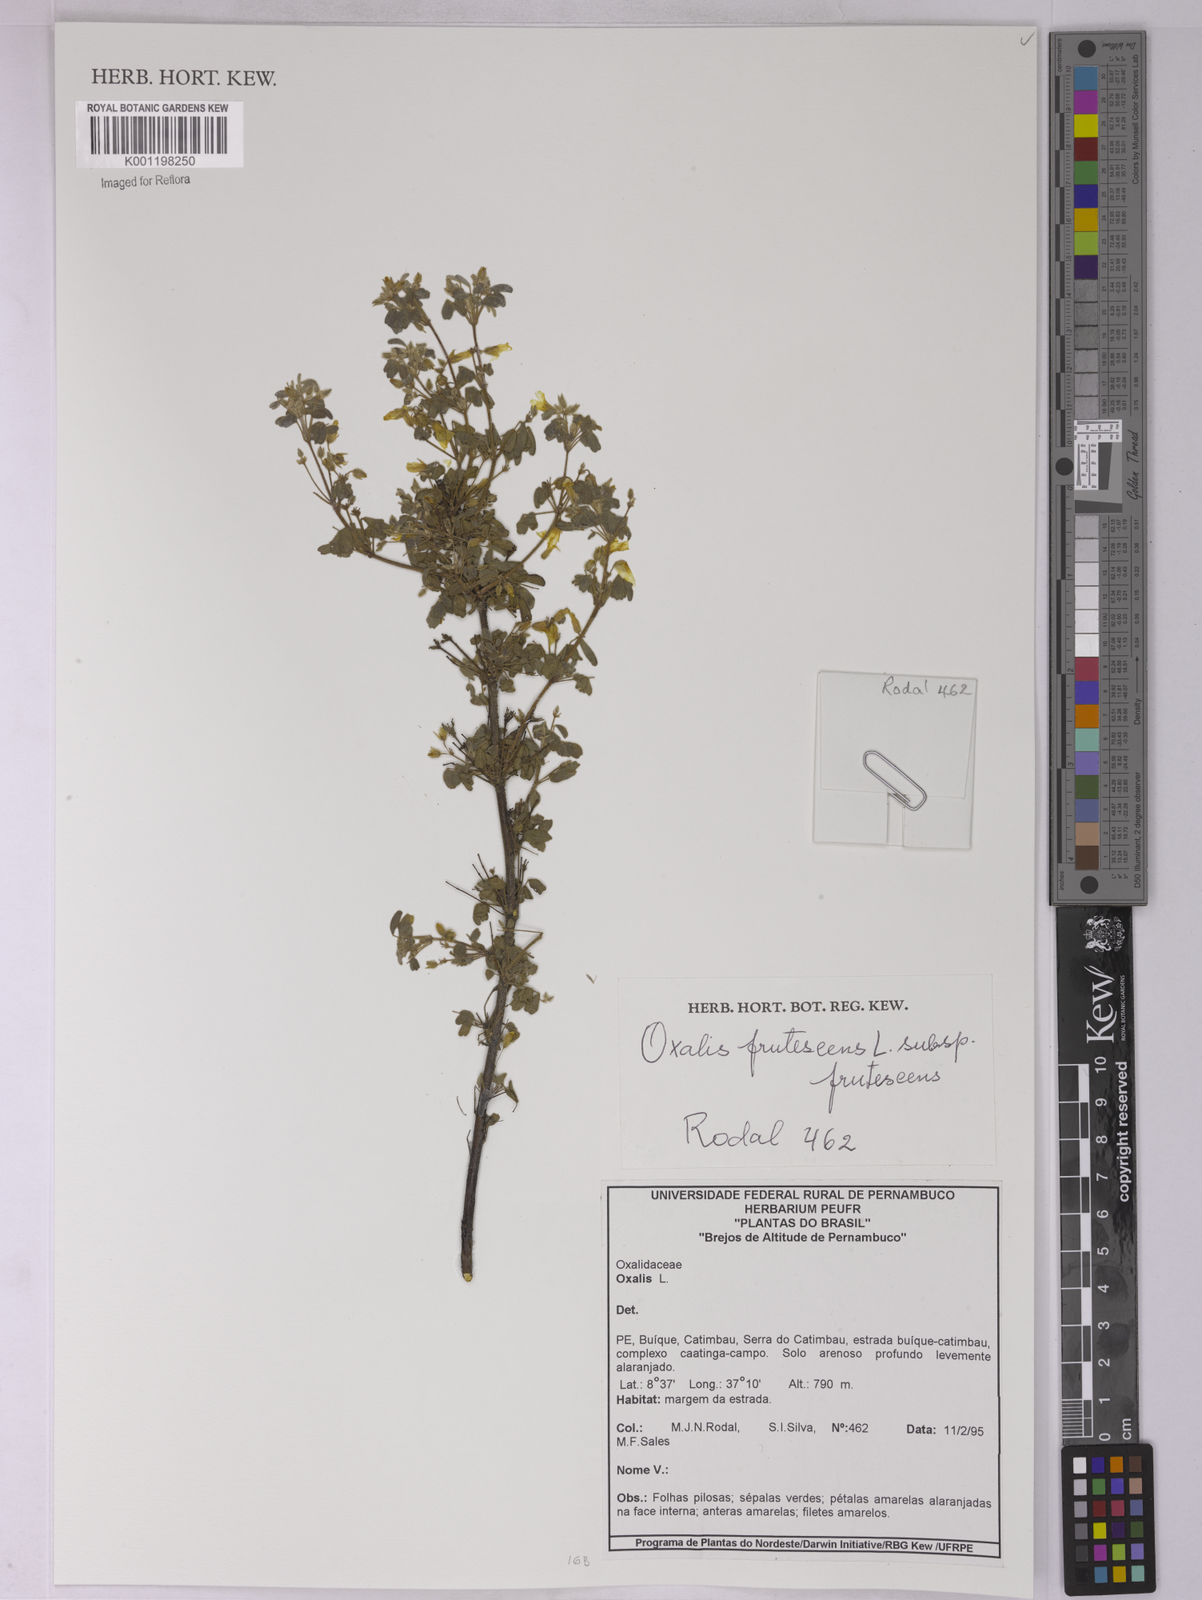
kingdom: Plantae
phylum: Tracheophyta
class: Magnoliopsida
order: Oxalidales
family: Oxalidaceae
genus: Oxalis
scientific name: Oxalis frutescens
